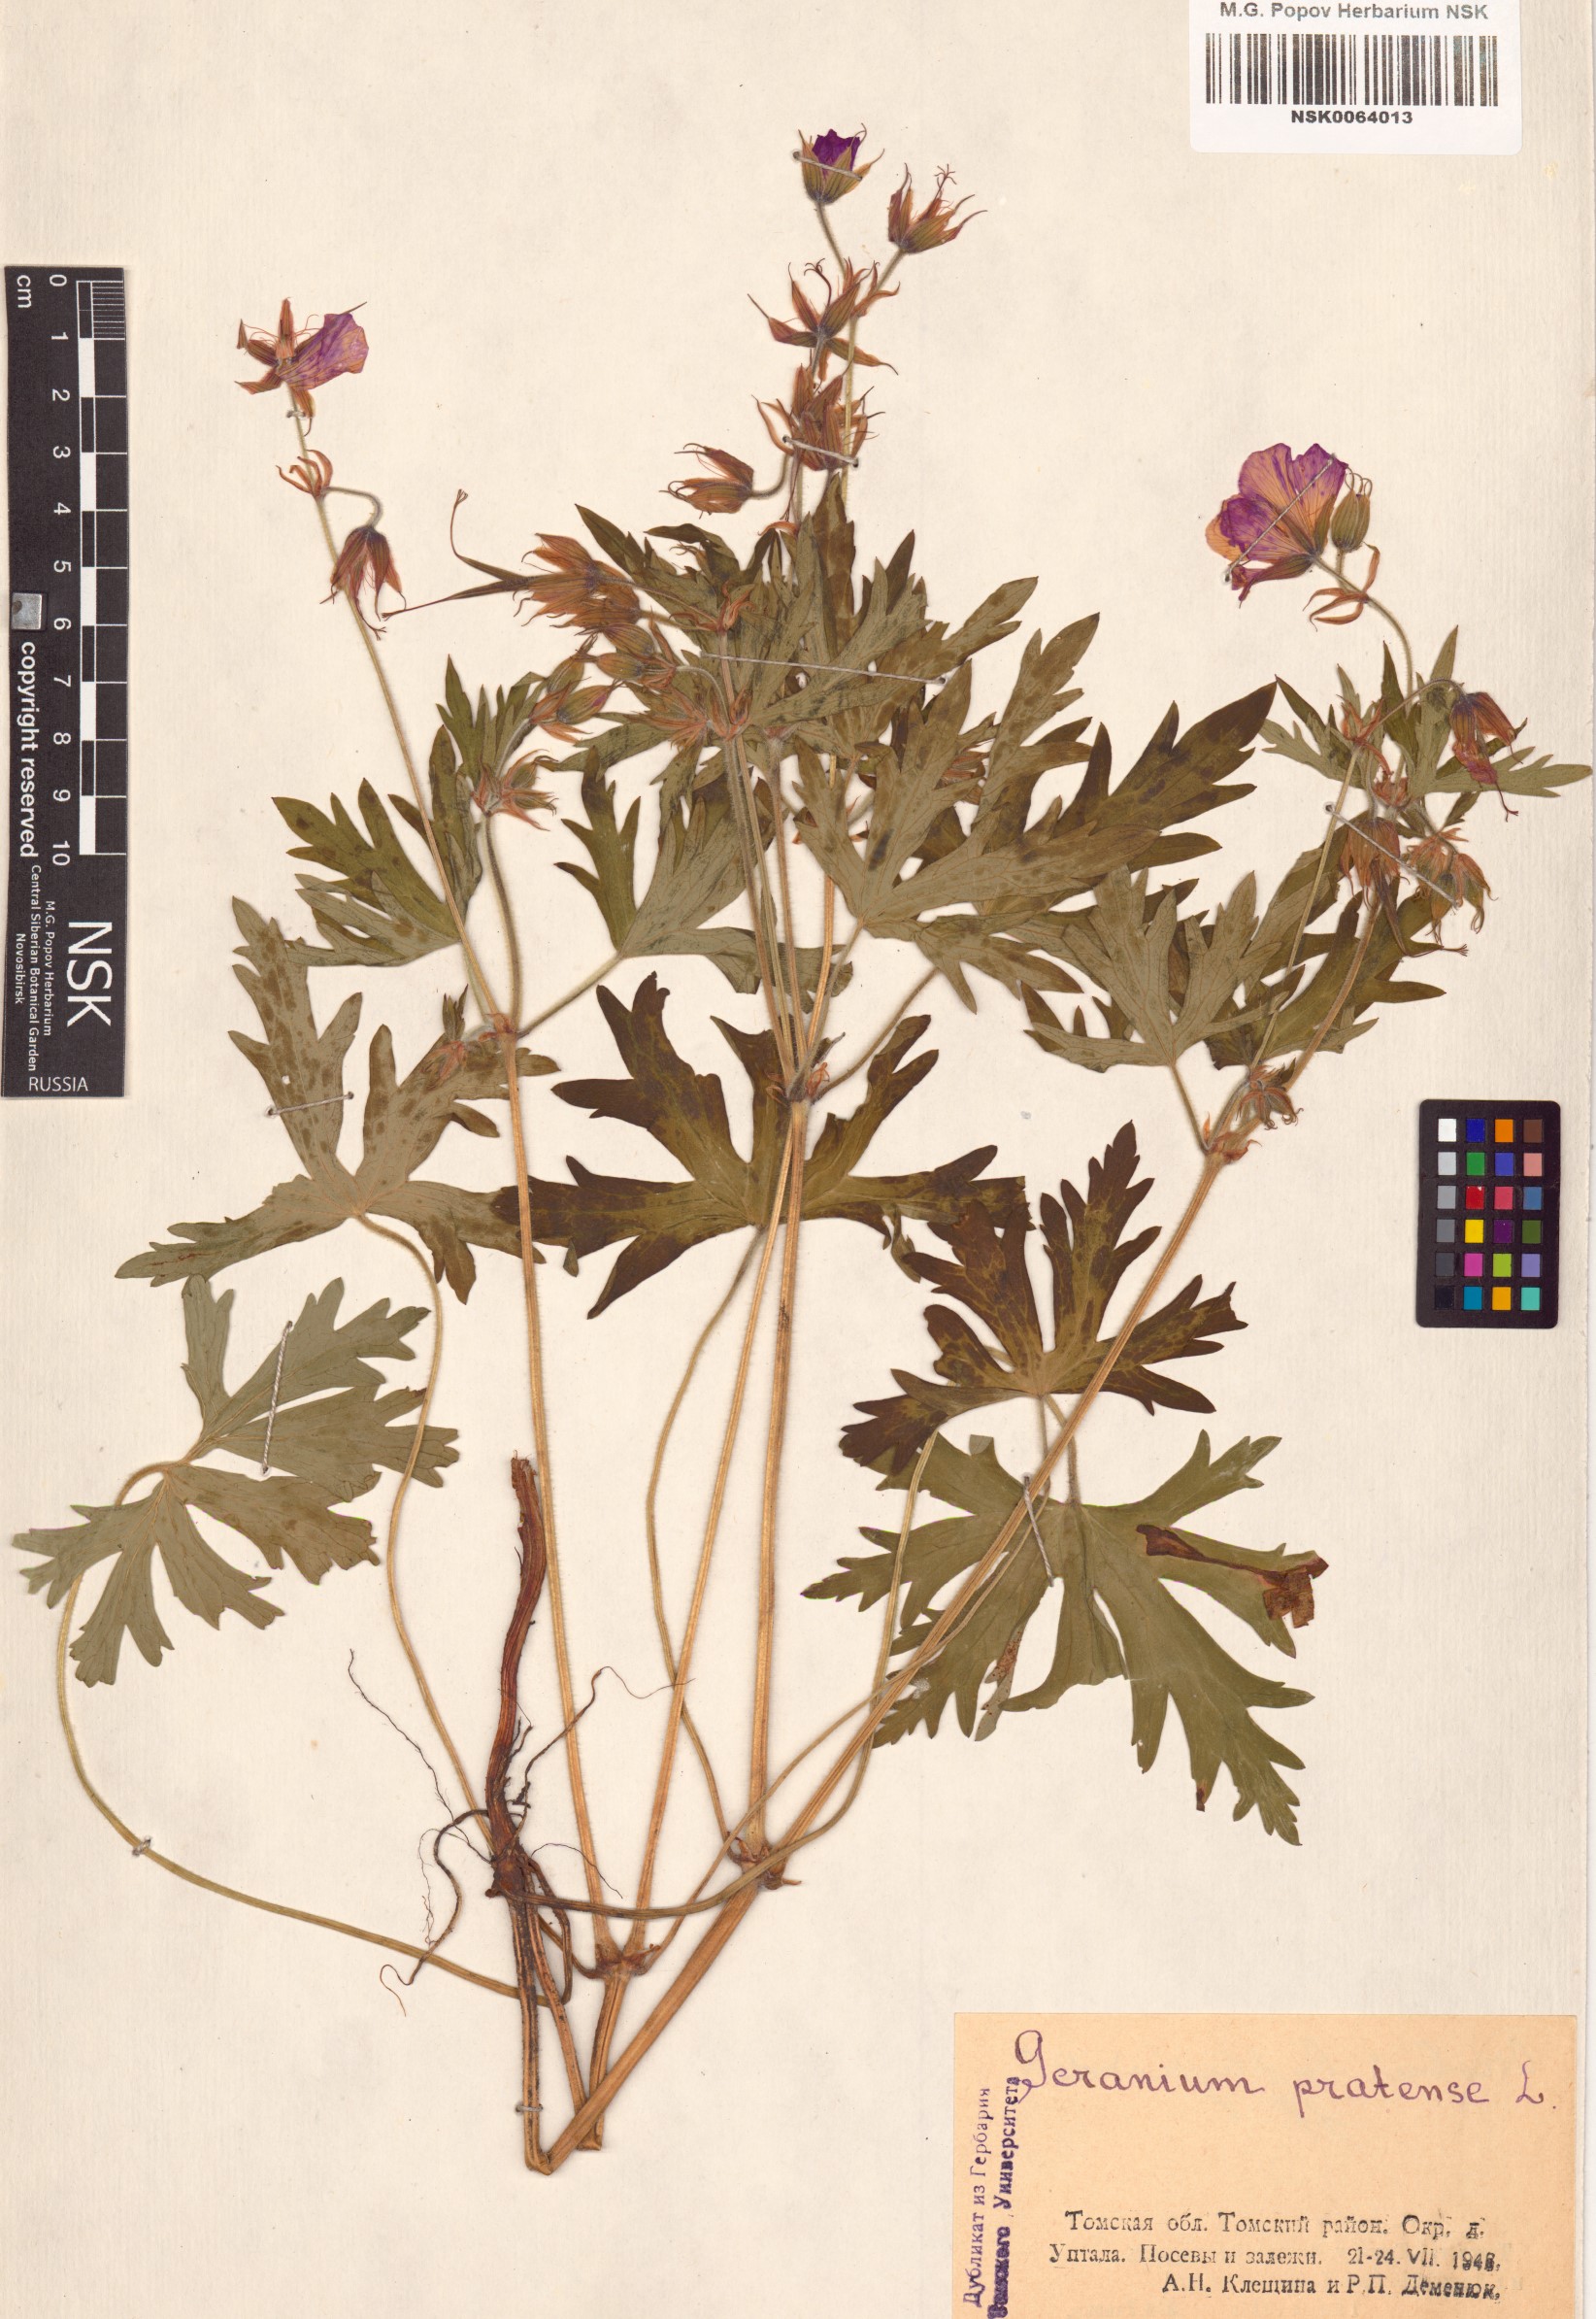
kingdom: Plantae
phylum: Tracheophyta
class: Magnoliopsida
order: Geraniales
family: Geraniaceae
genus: Geranium
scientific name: Geranium pratense
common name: Meadow crane's-bill
